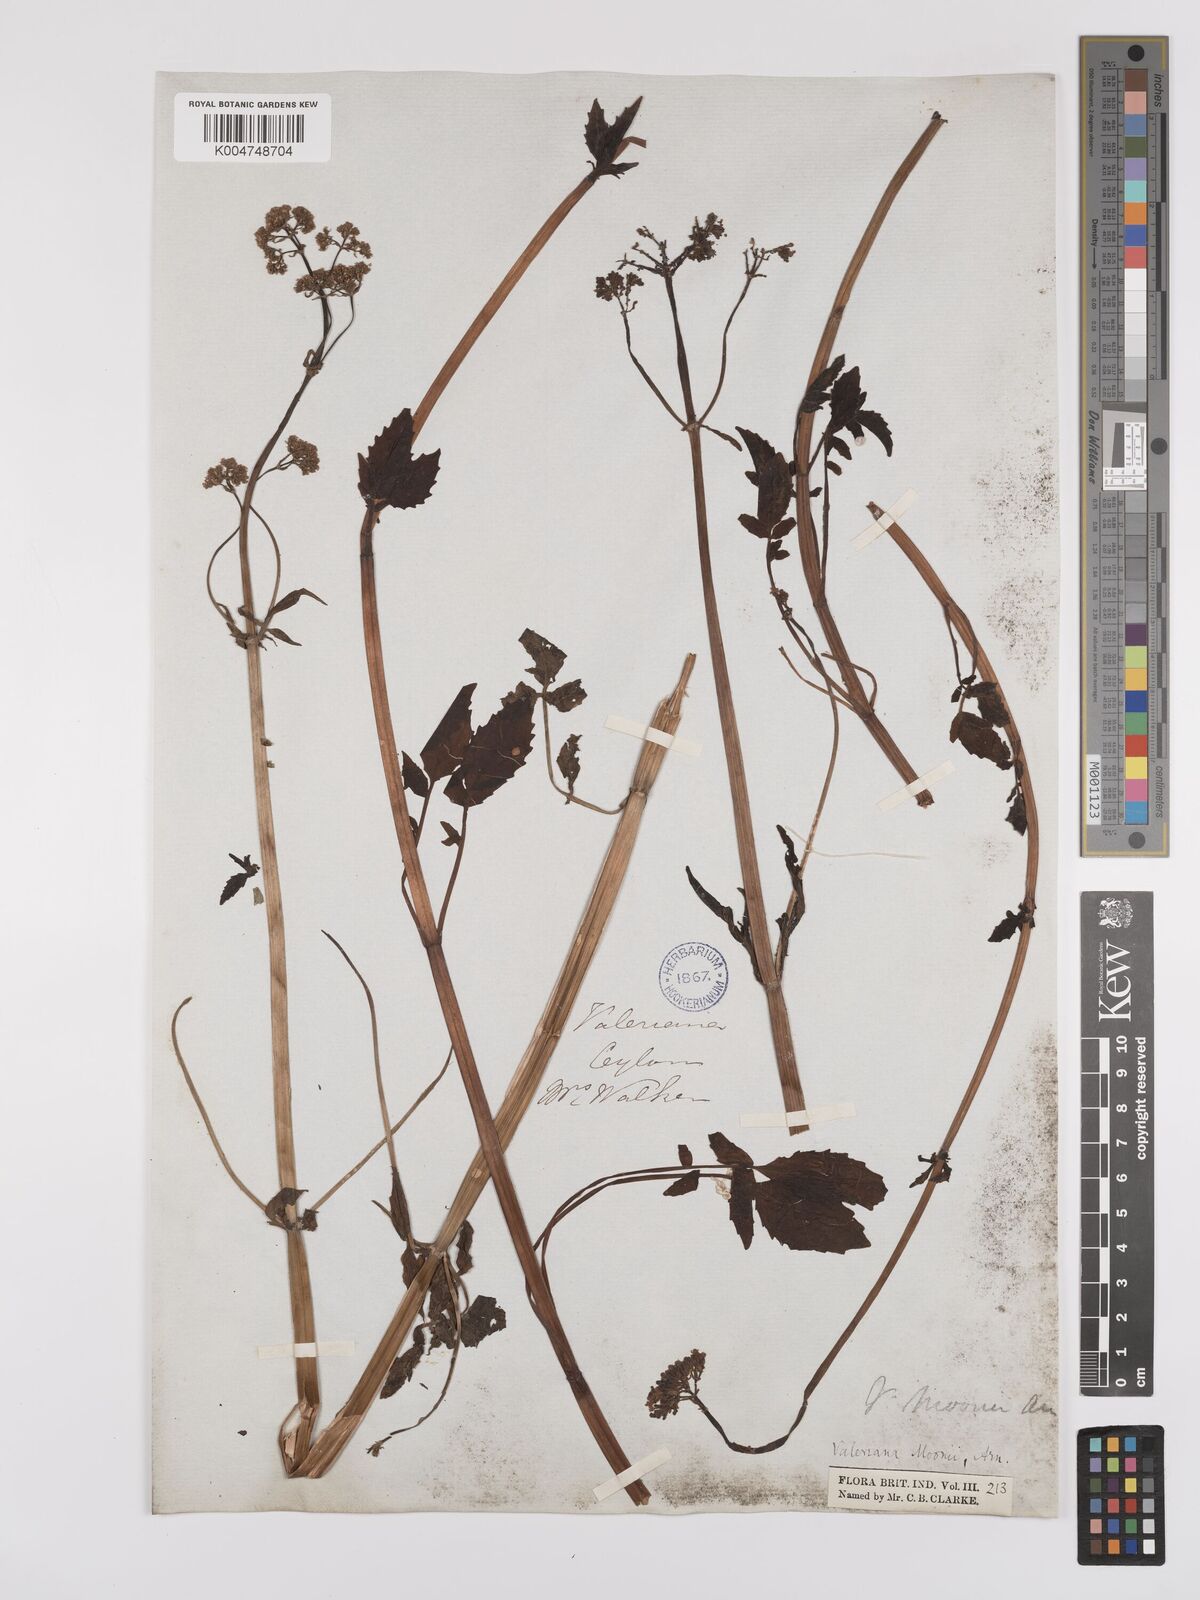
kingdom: Plantae
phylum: Tracheophyta
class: Magnoliopsida
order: Dipsacales
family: Caprifoliaceae
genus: Valeriana
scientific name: Valeriana moonii
